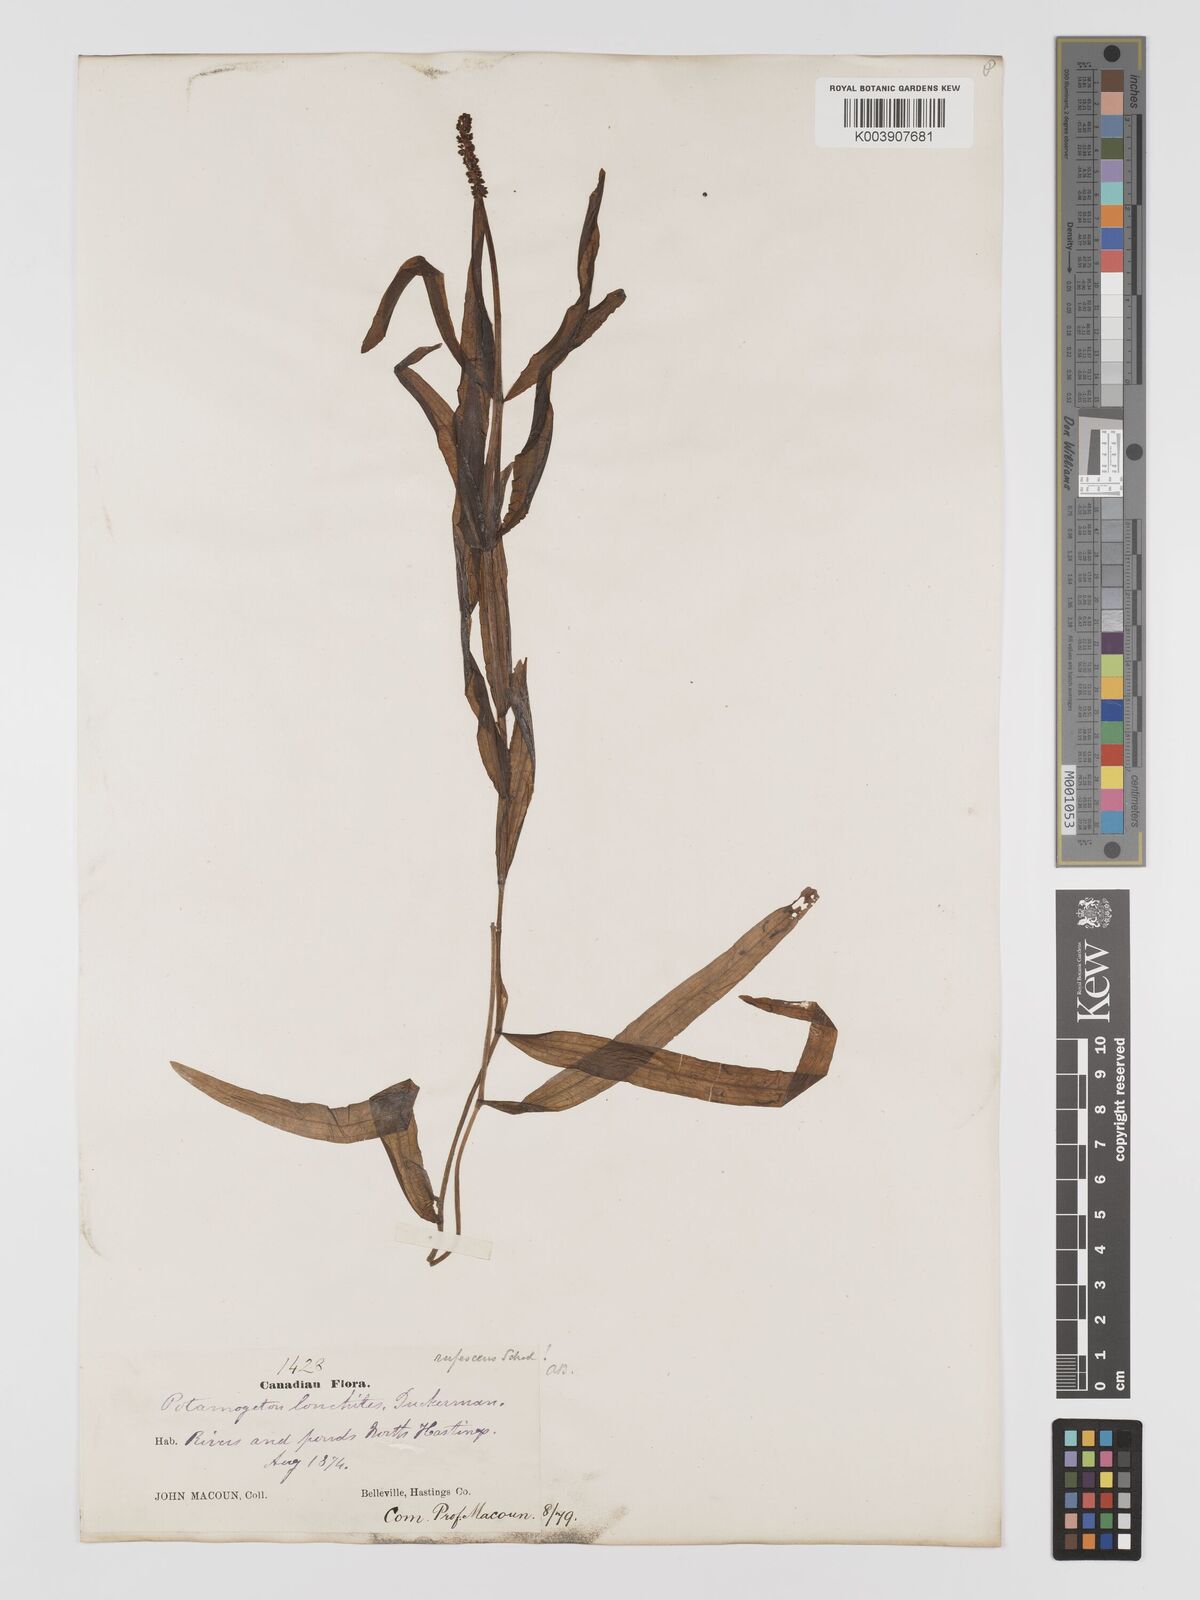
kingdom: Plantae
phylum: Tracheophyta
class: Liliopsida
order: Alismatales
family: Potamogetonaceae
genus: Potamogeton
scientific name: Potamogeton alpinus
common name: Red pondweed
